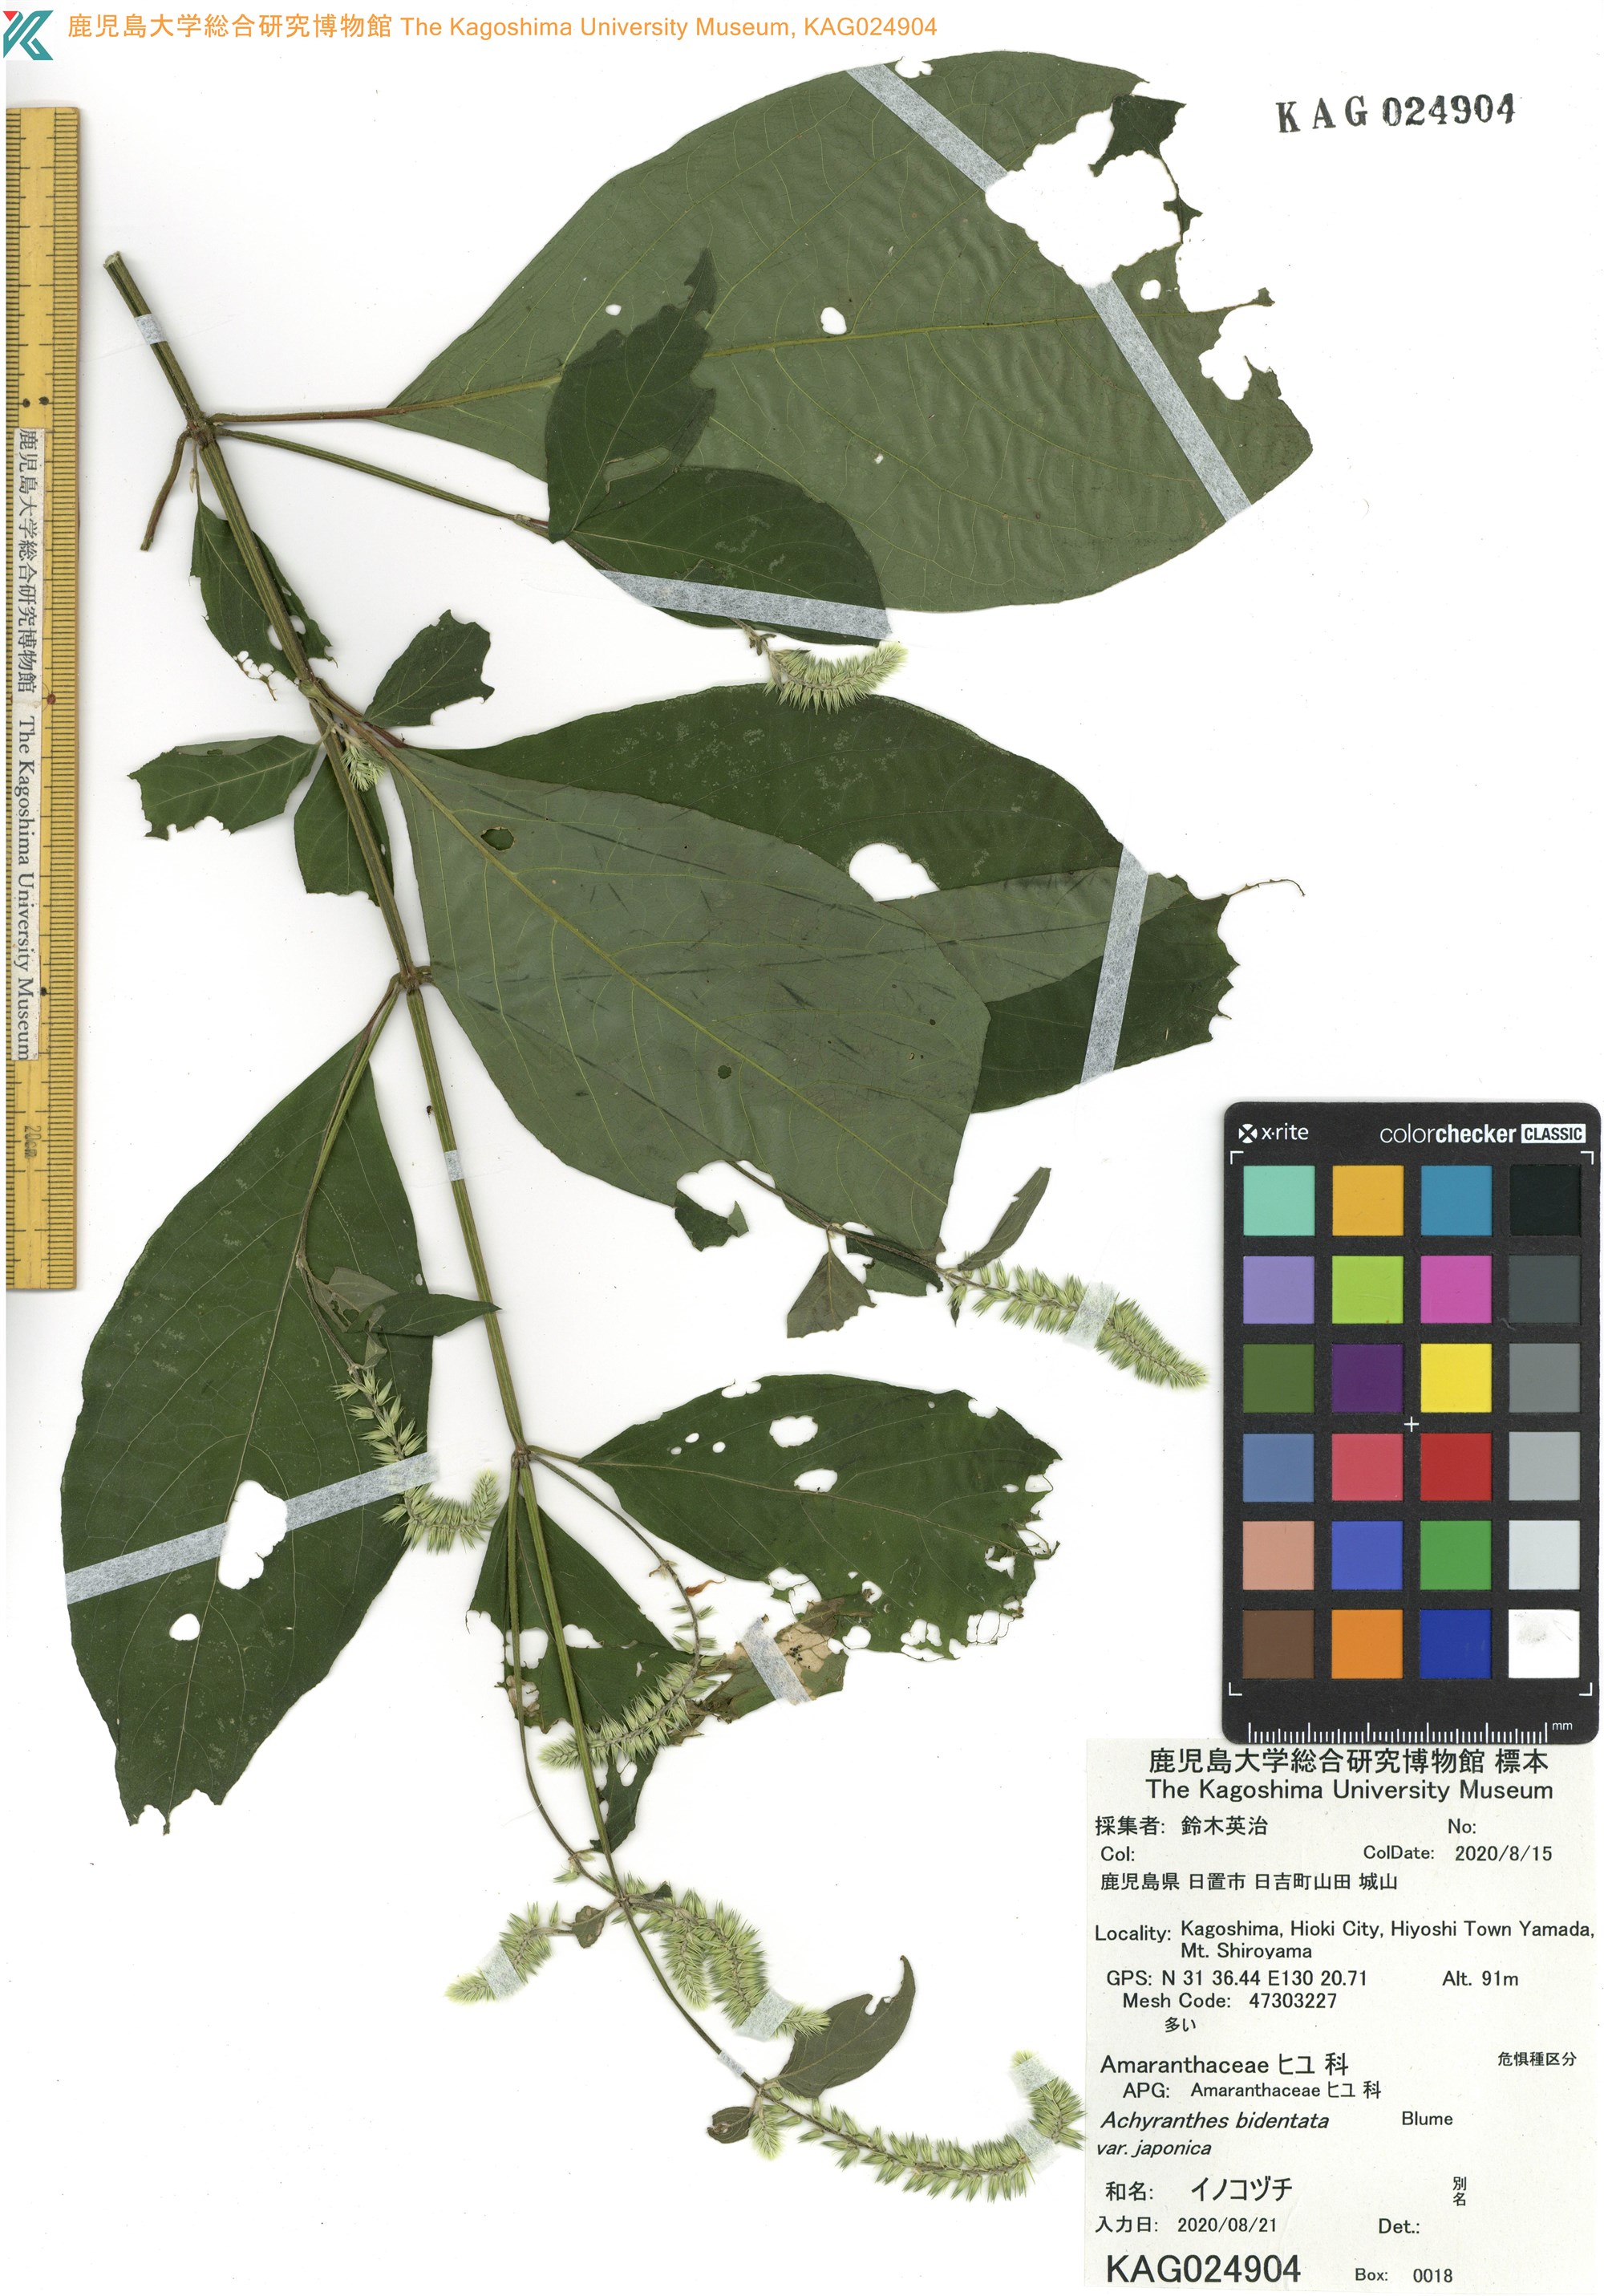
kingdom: Plantae
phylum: Tracheophyta
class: Magnoliopsida
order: Caryophyllales
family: Amaranthaceae
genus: Achyranthes
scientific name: Achyranthes bidentata
